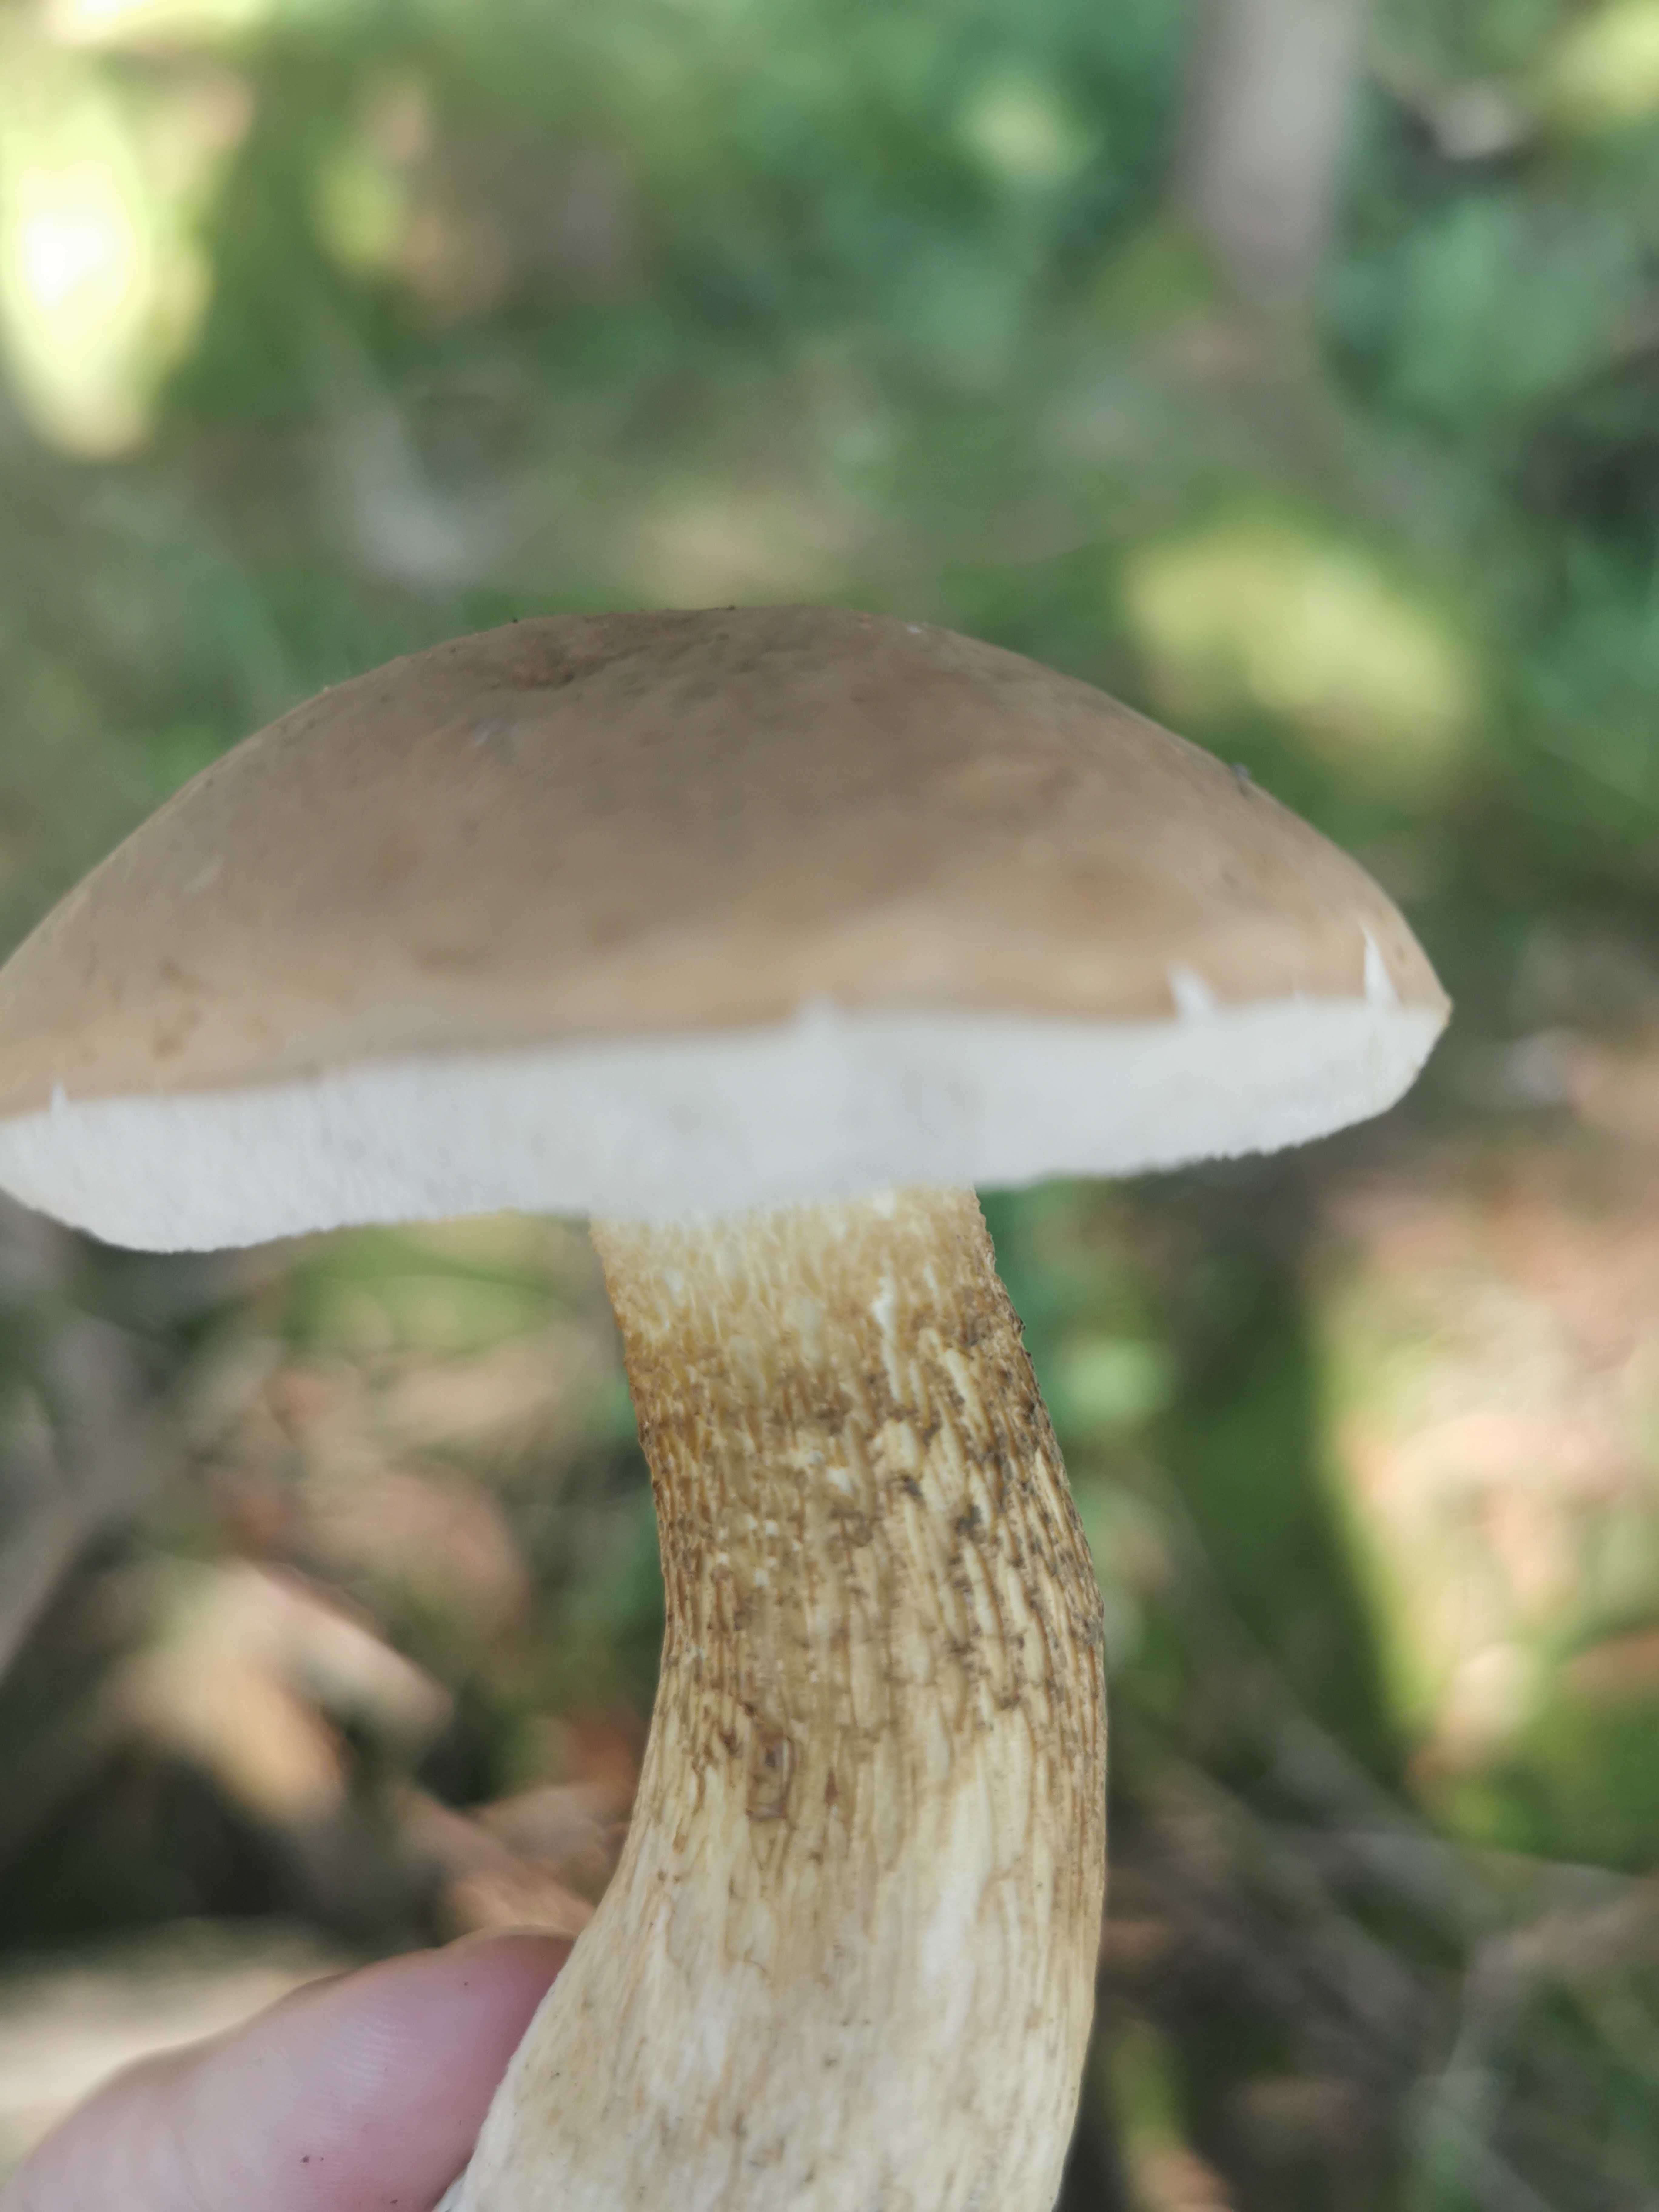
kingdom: Fungi
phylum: Basidiomycota
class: Agaricomycetes
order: Boletales
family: Boletaceae
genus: Tylopilus
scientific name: Tylopilus felleus
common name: galderørhat
